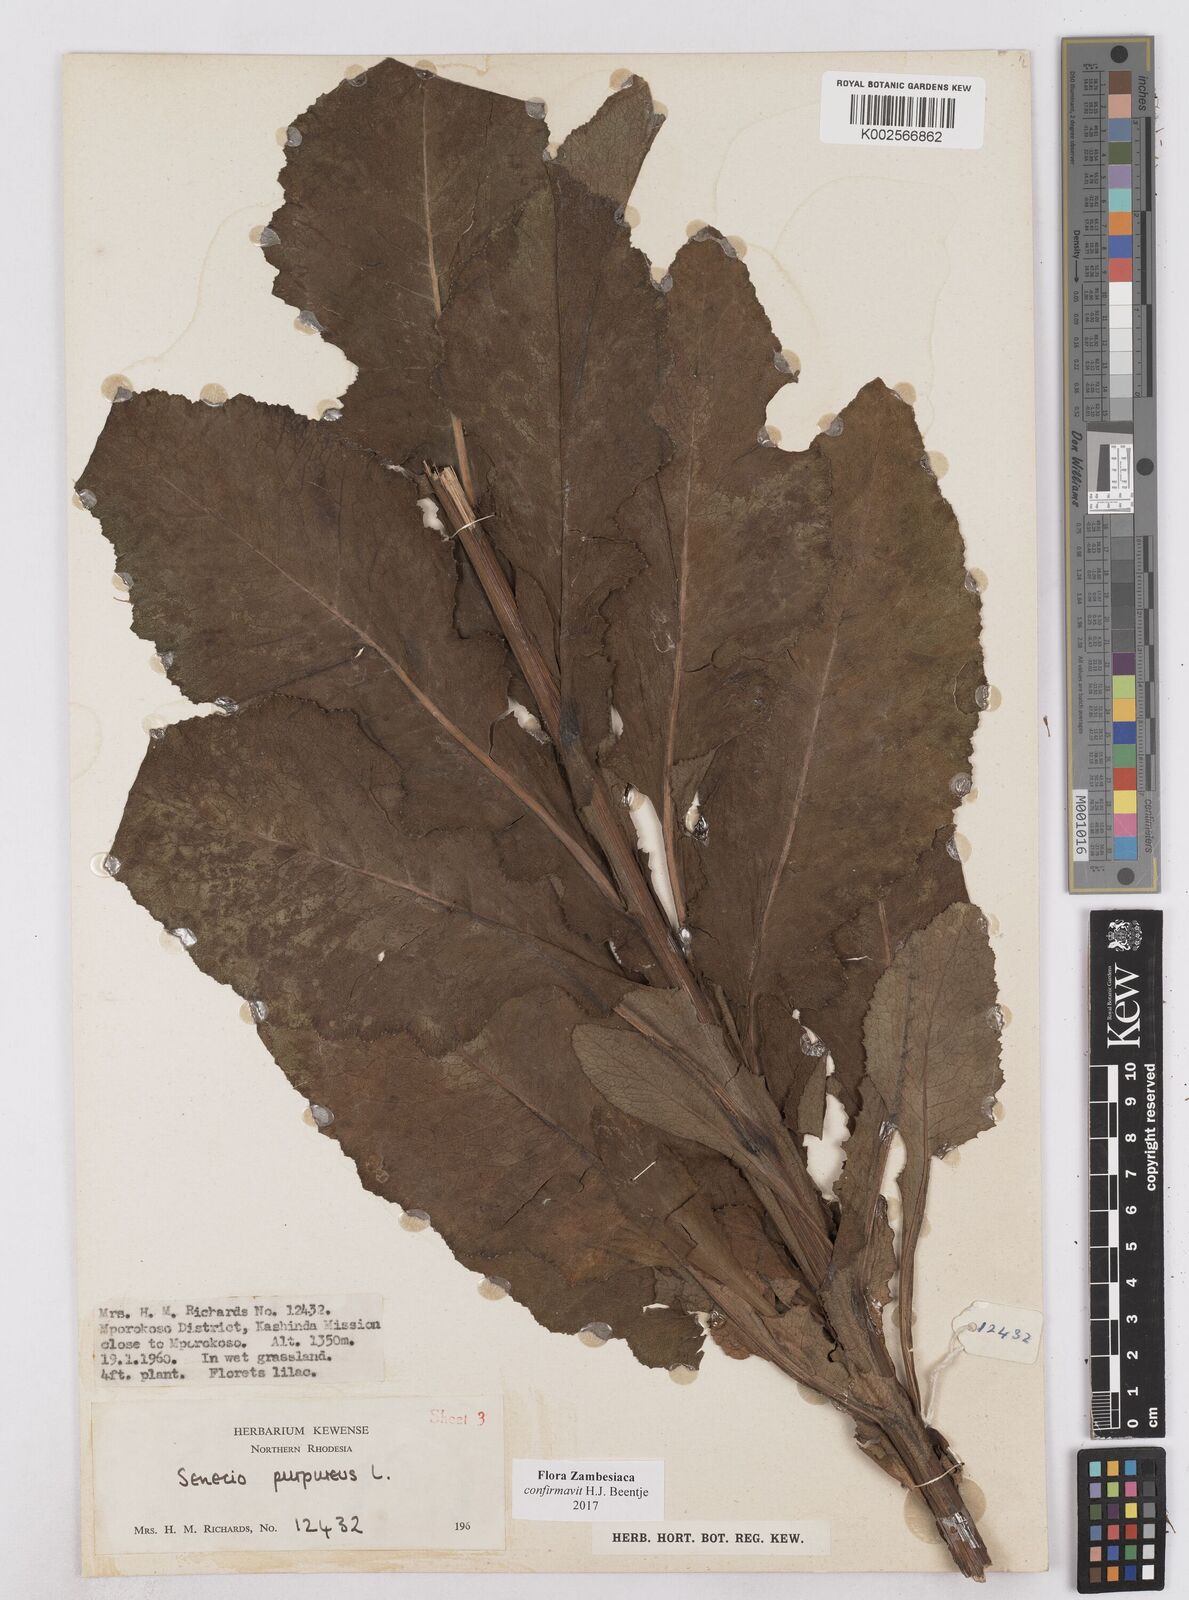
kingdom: Plantae
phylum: Tracheophyta
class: Magnoliopsida
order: Asterales
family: Asteraceae
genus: Senecio
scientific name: Senecio purpureus
